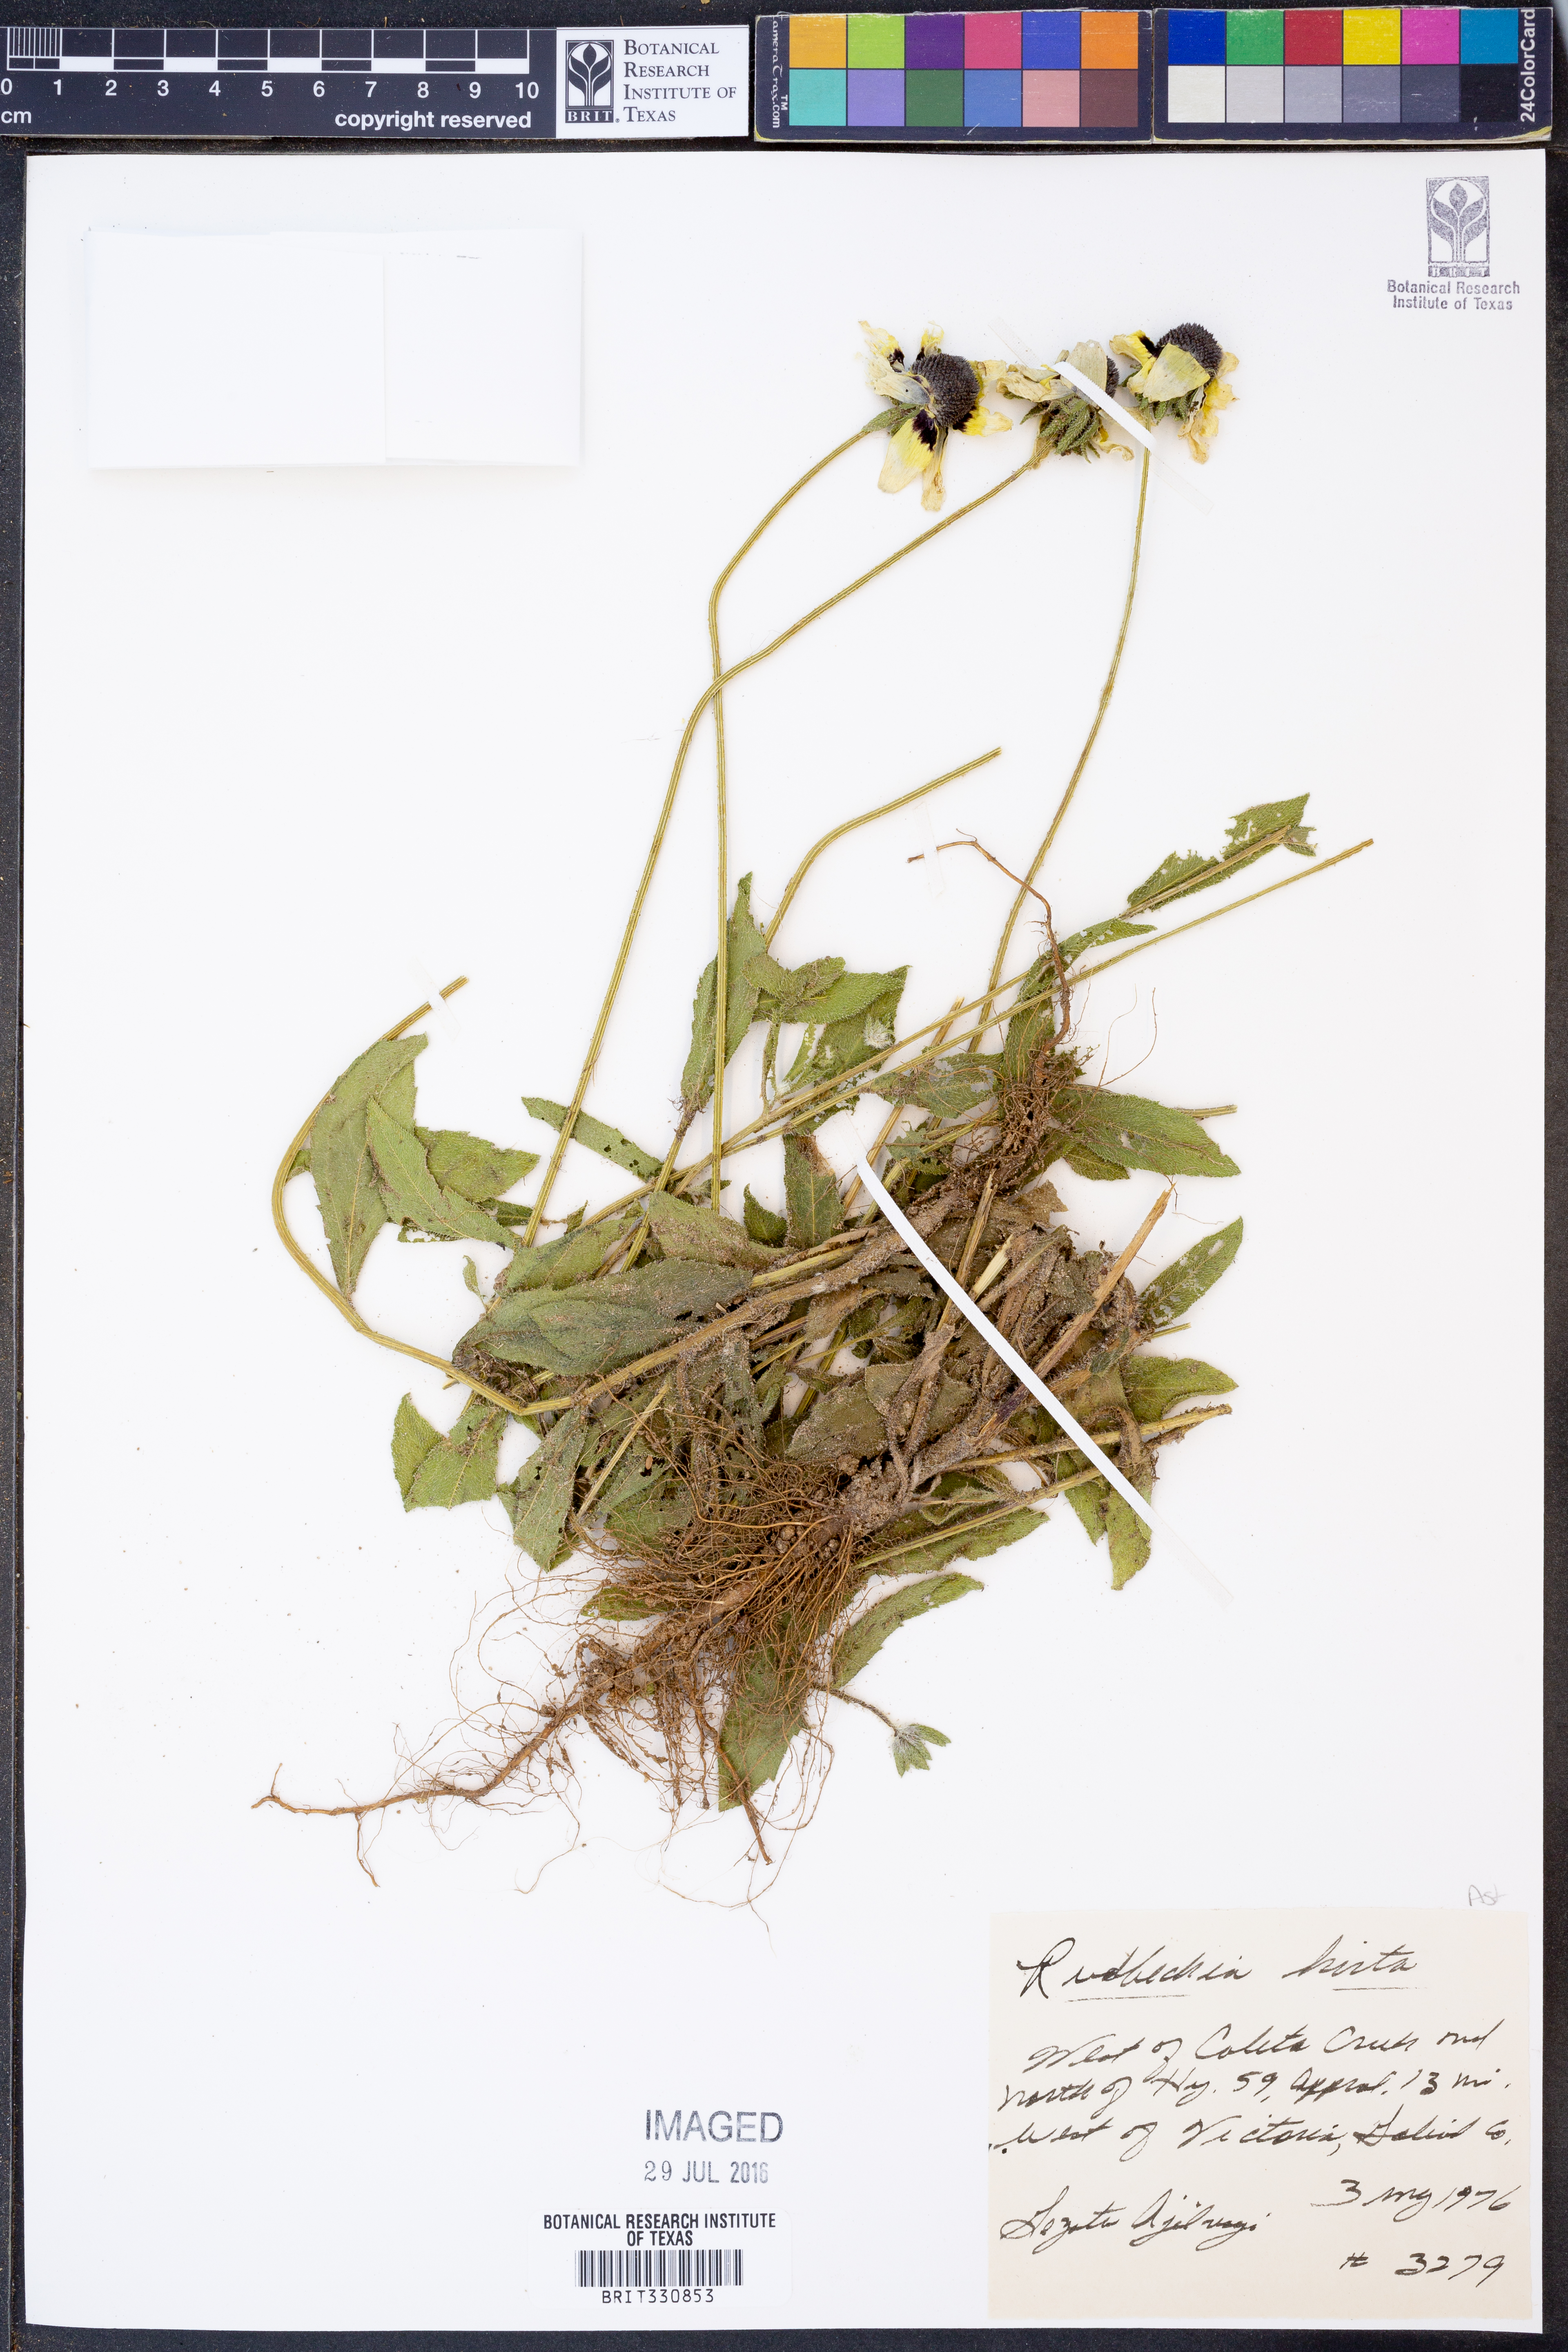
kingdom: Plantae
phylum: Tracheophyta
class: Magnoliopsida
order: Asterales
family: Asteraceae
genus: Rudbeckia
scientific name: Rudbeckia hirta
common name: Black-eyed-susan
